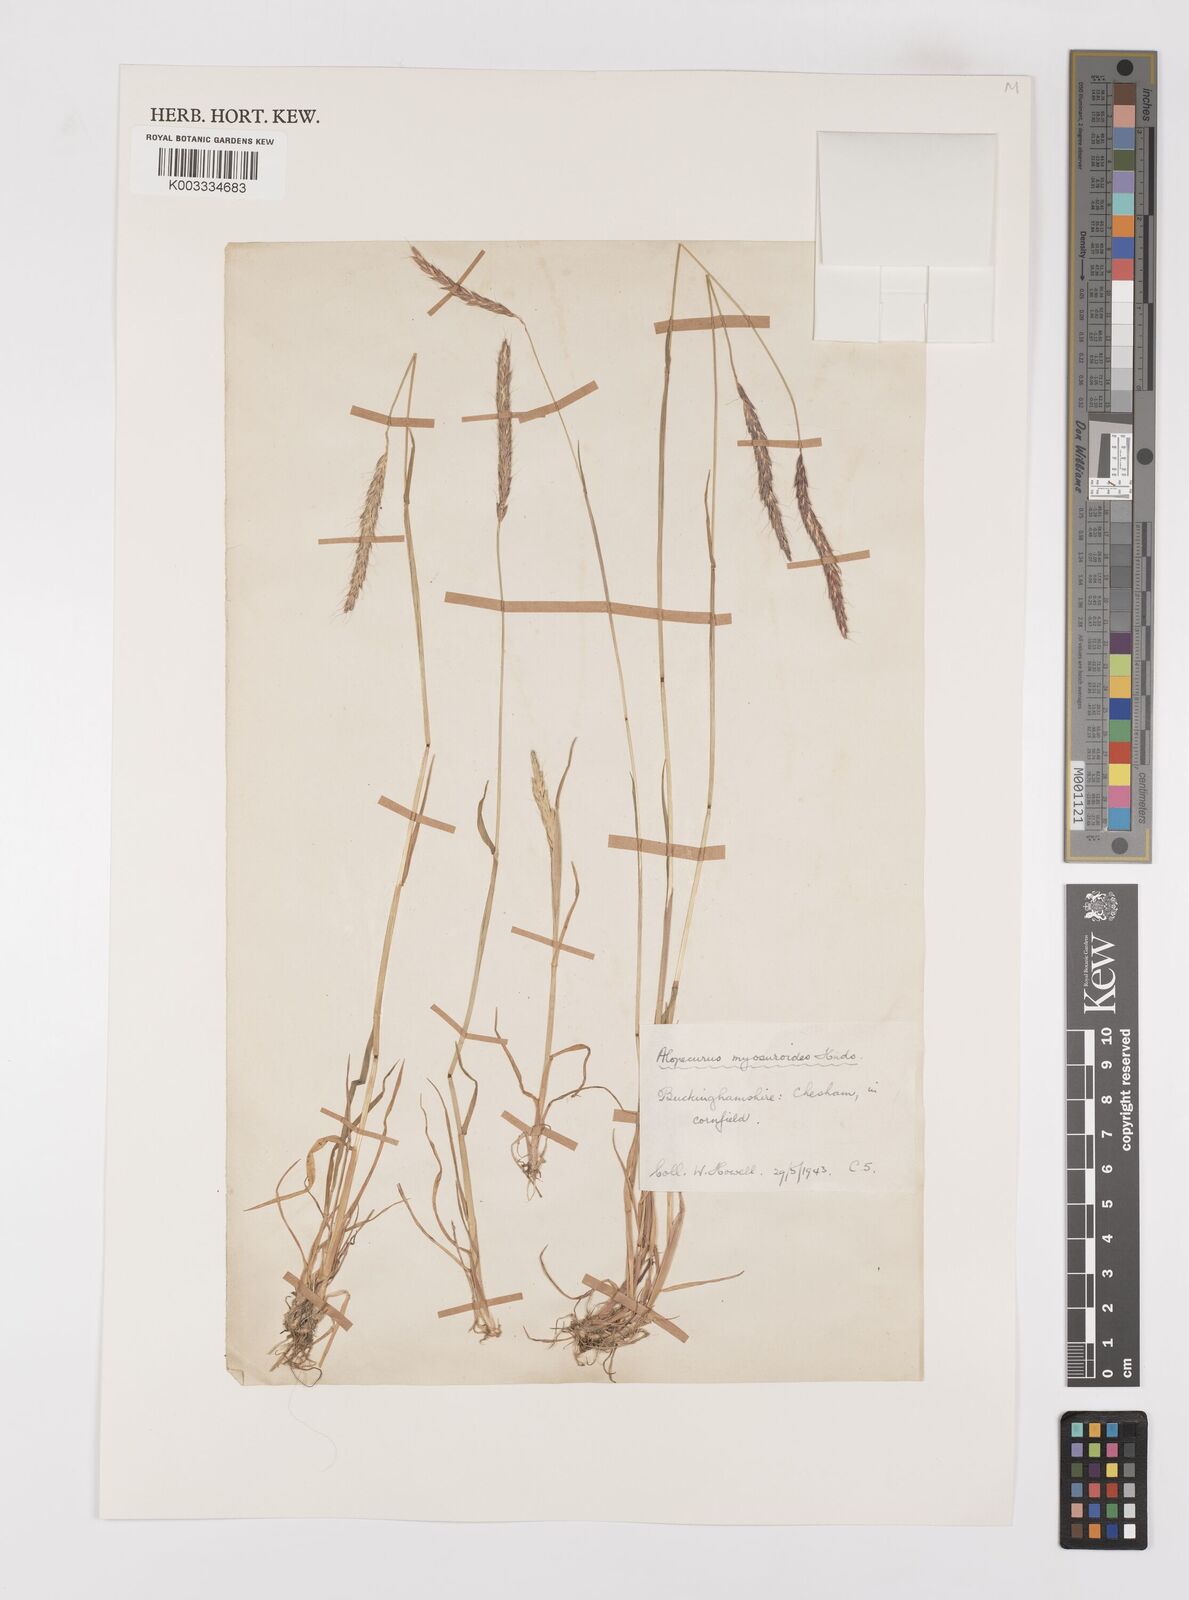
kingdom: Plantae
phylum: Tracheophyta
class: Liliopsida
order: Poales
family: Poaceae
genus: Alopecurus
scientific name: Alopecurus myosuroides
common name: Black-grass
